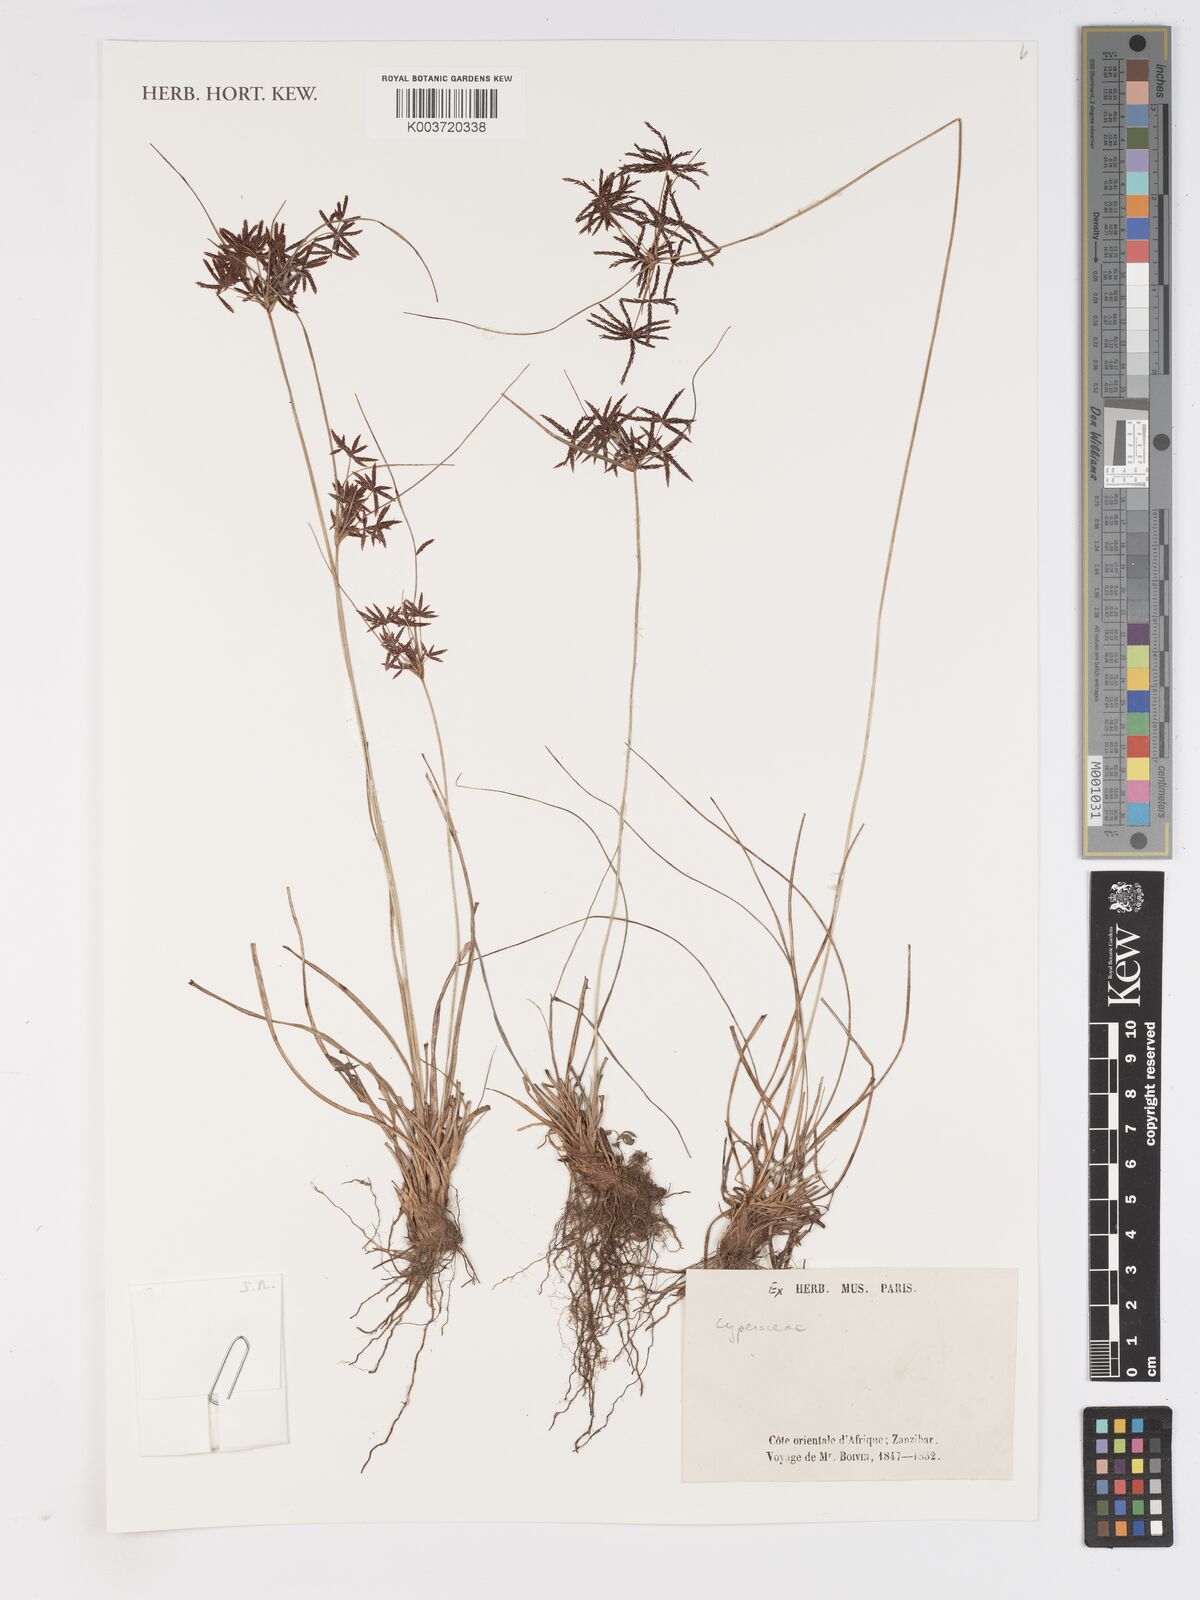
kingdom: Plantae
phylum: Tracheophyta
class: Liliopsida
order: Poales
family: Cyperaceae
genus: Cyperus
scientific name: Cyperus
